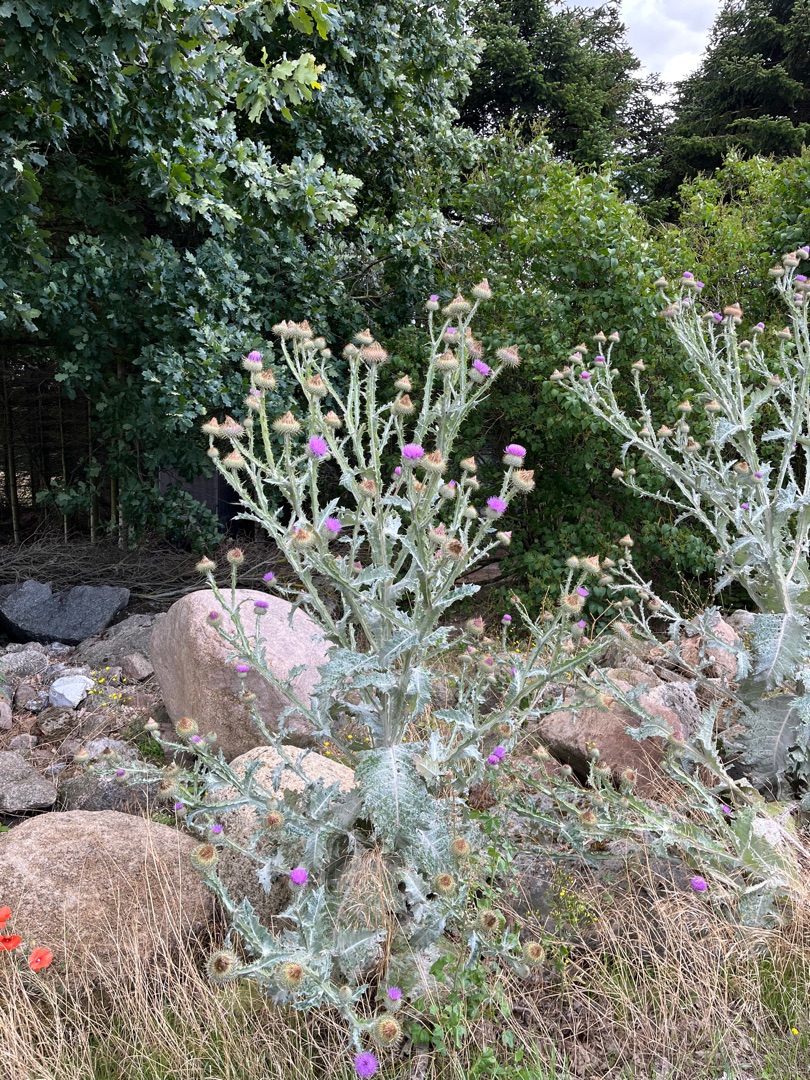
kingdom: Plantae
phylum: Tracheophyta
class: Magnoliopsida
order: Asterales
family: Asteraceae
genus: Onopordum
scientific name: Onopordum acanthium
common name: Æselfoder
